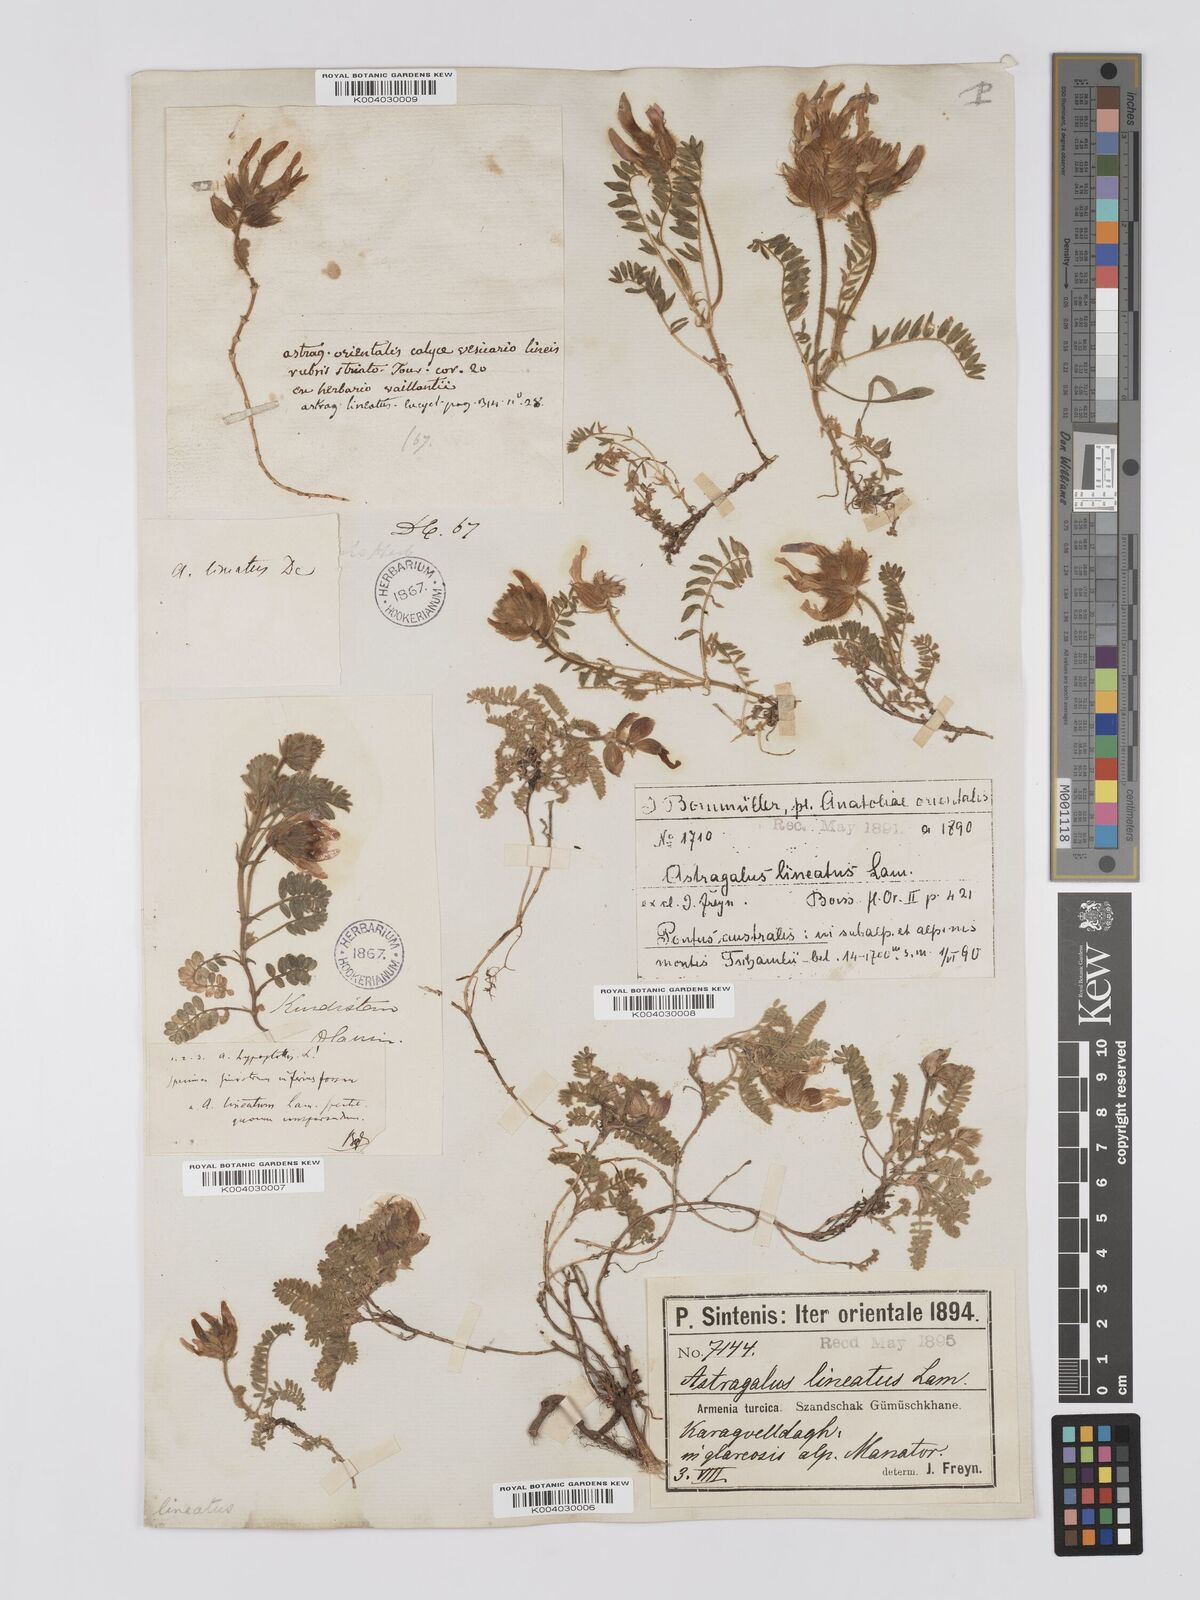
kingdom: Plantae
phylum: Tracheophyta
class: Magnoliopsida
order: Fabales
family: Fabaceae
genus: Astragalus
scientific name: Astragalus lineatus
